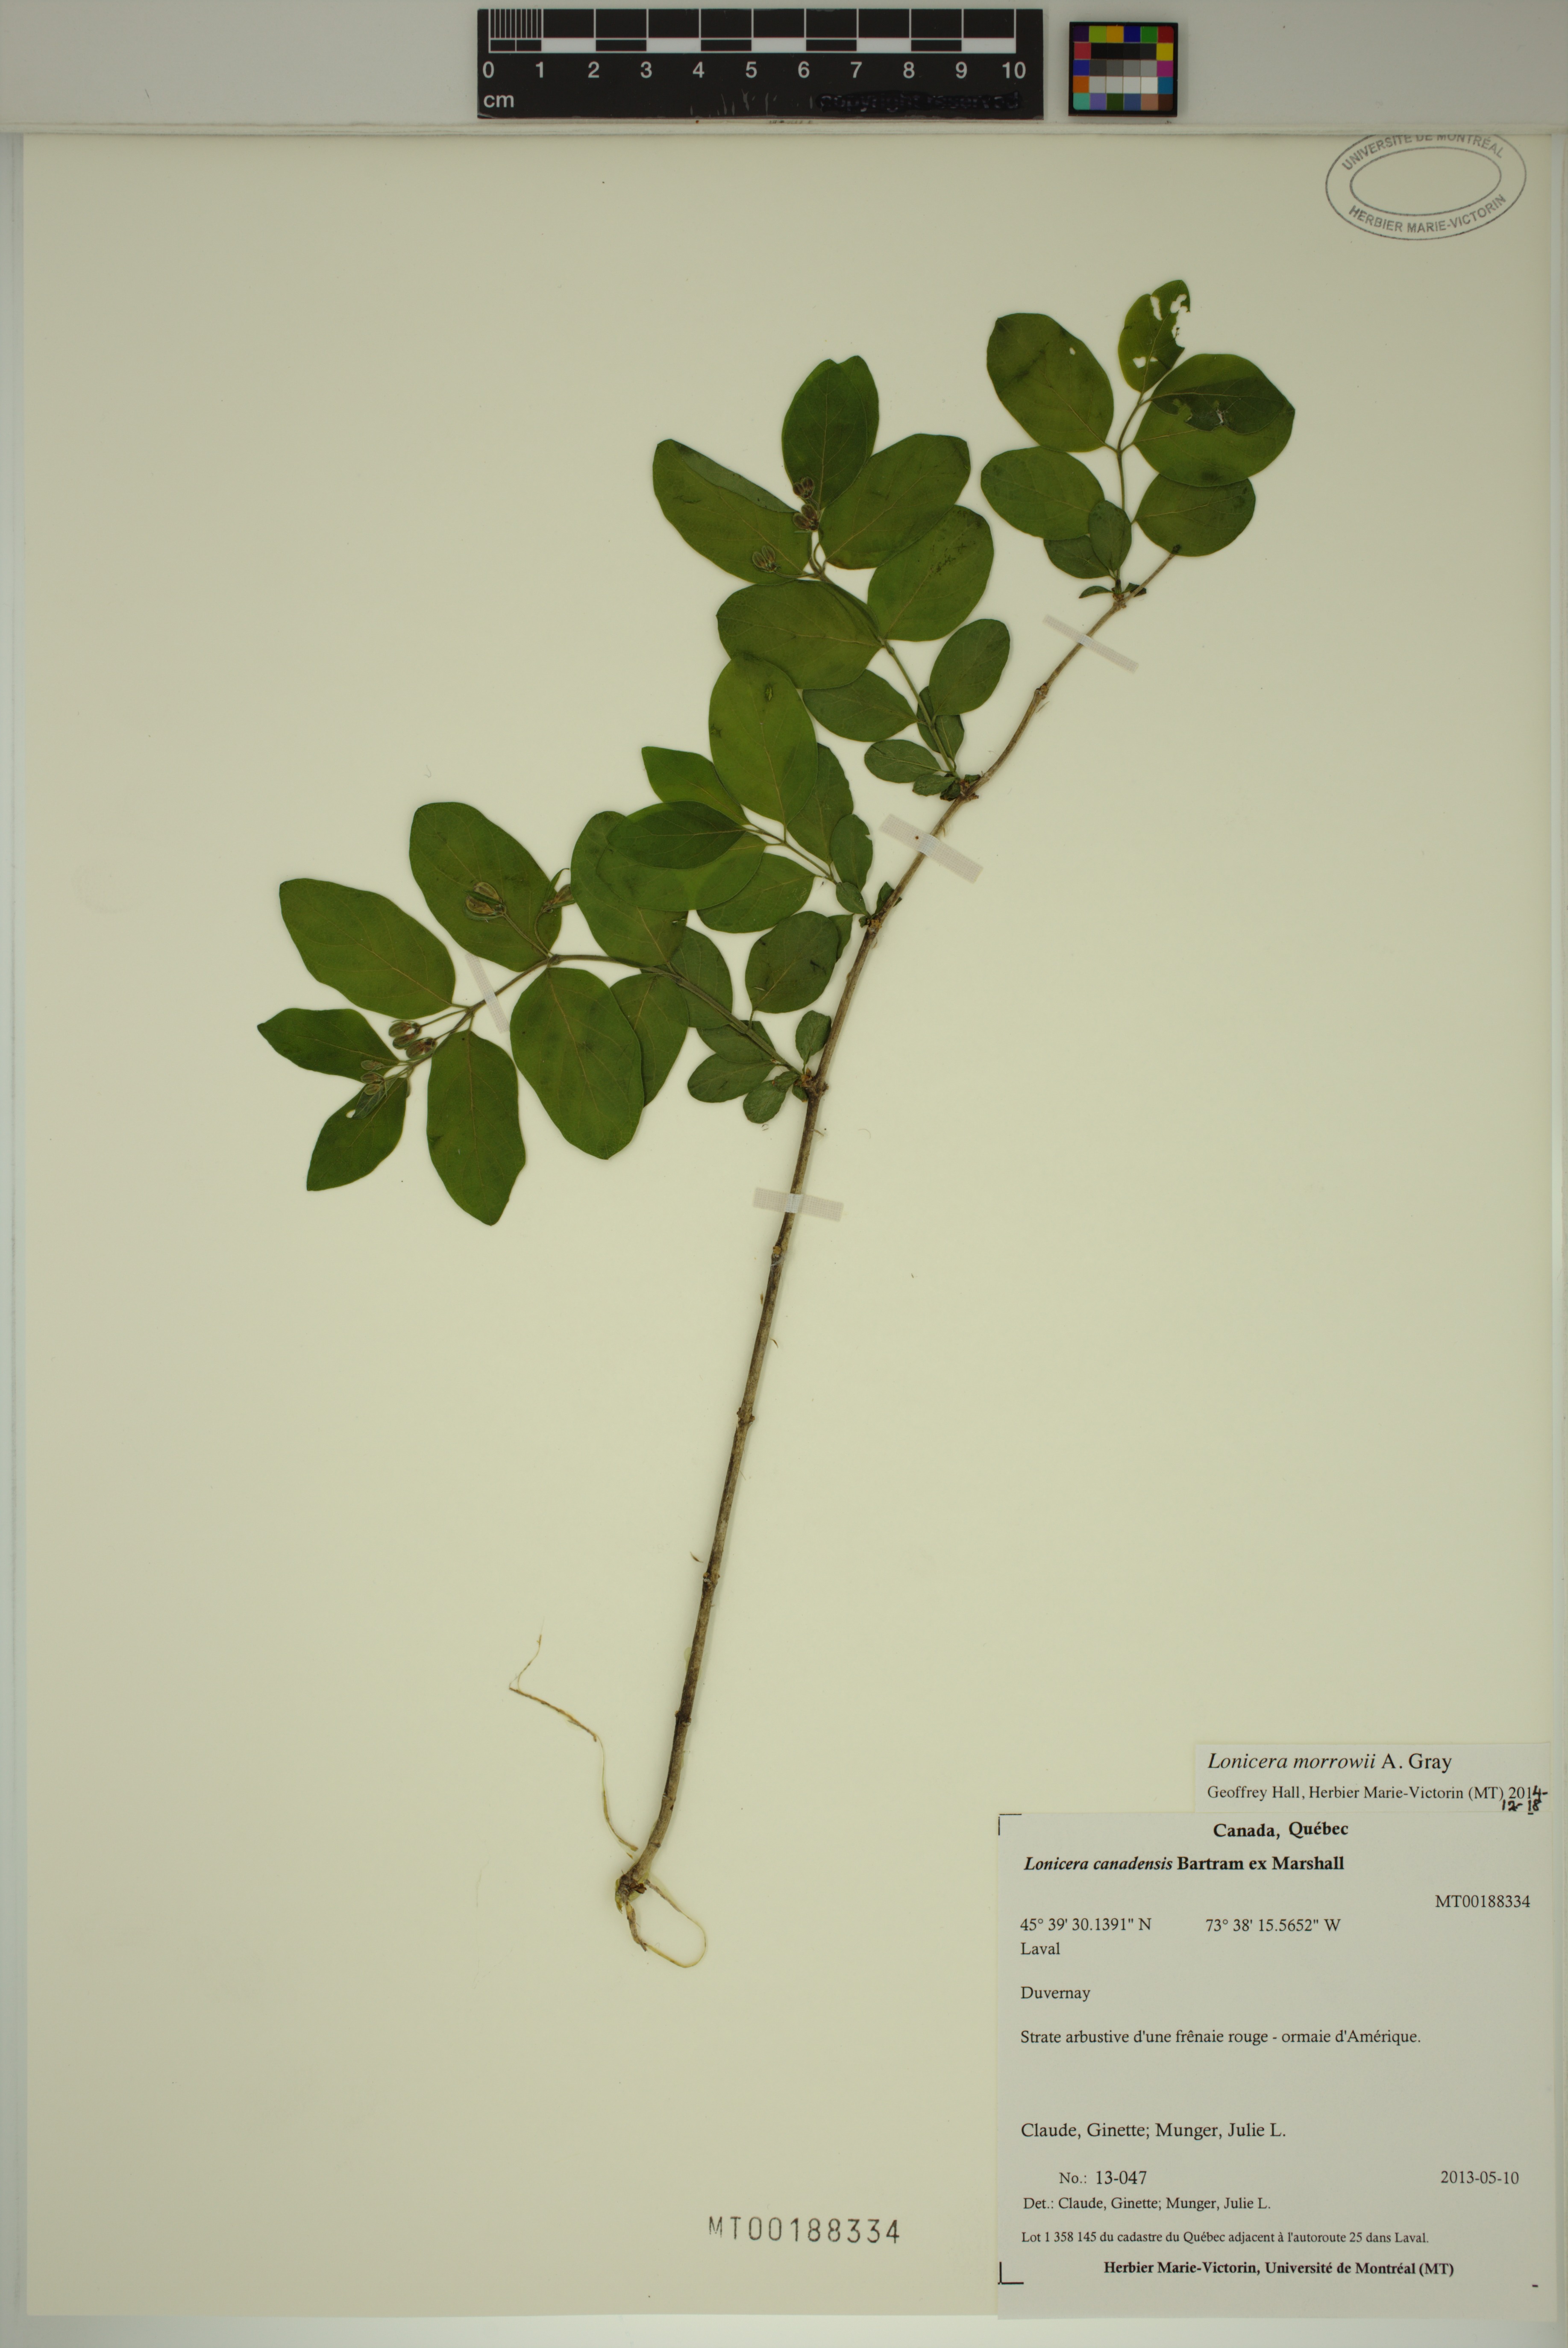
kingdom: Plantae
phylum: Tracheophyta
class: Magnoliopsida
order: Dipsacales
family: Caprifoliaceae
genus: Lonicera
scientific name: Lonicera morrowii
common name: Morrow's honeysuckle
